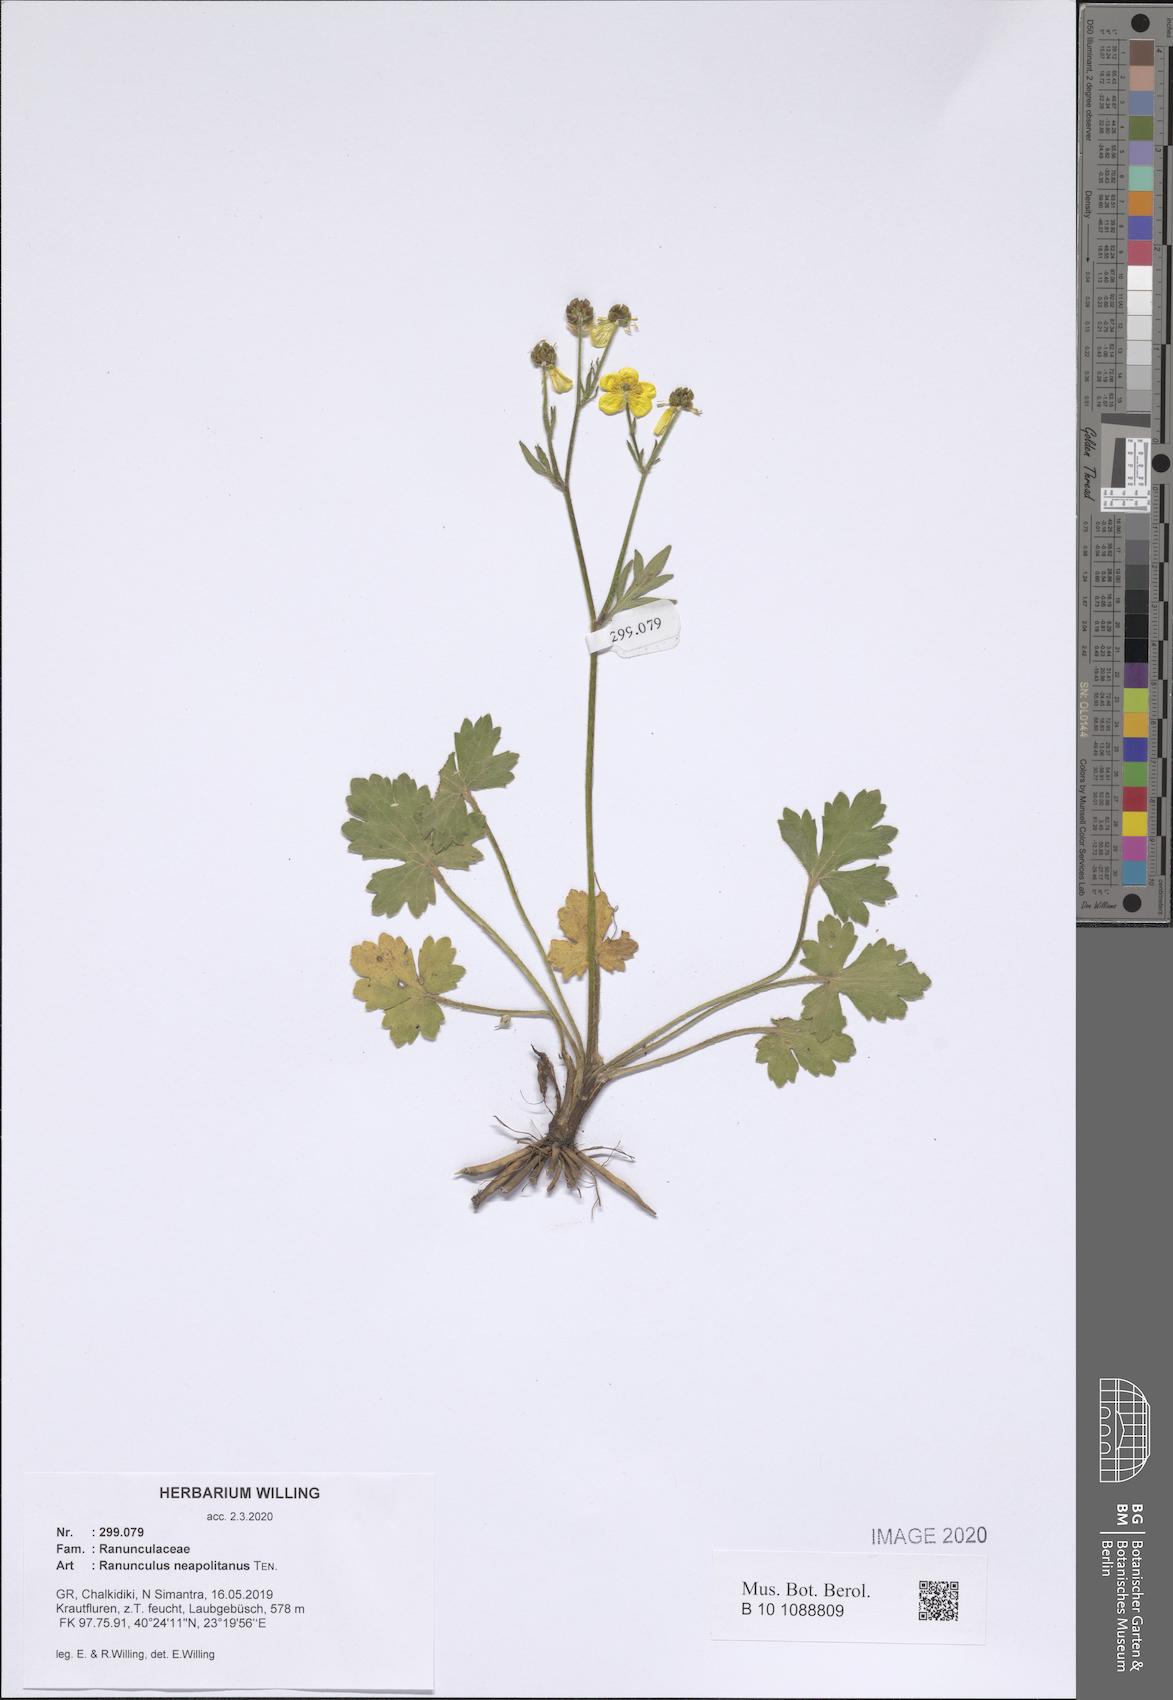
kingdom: Plantae
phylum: Tracheophyta
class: Magnoliopsida
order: Ranunculales
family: Ranunculaceae
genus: Ranunculus
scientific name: Ranunculus neapolitanus
